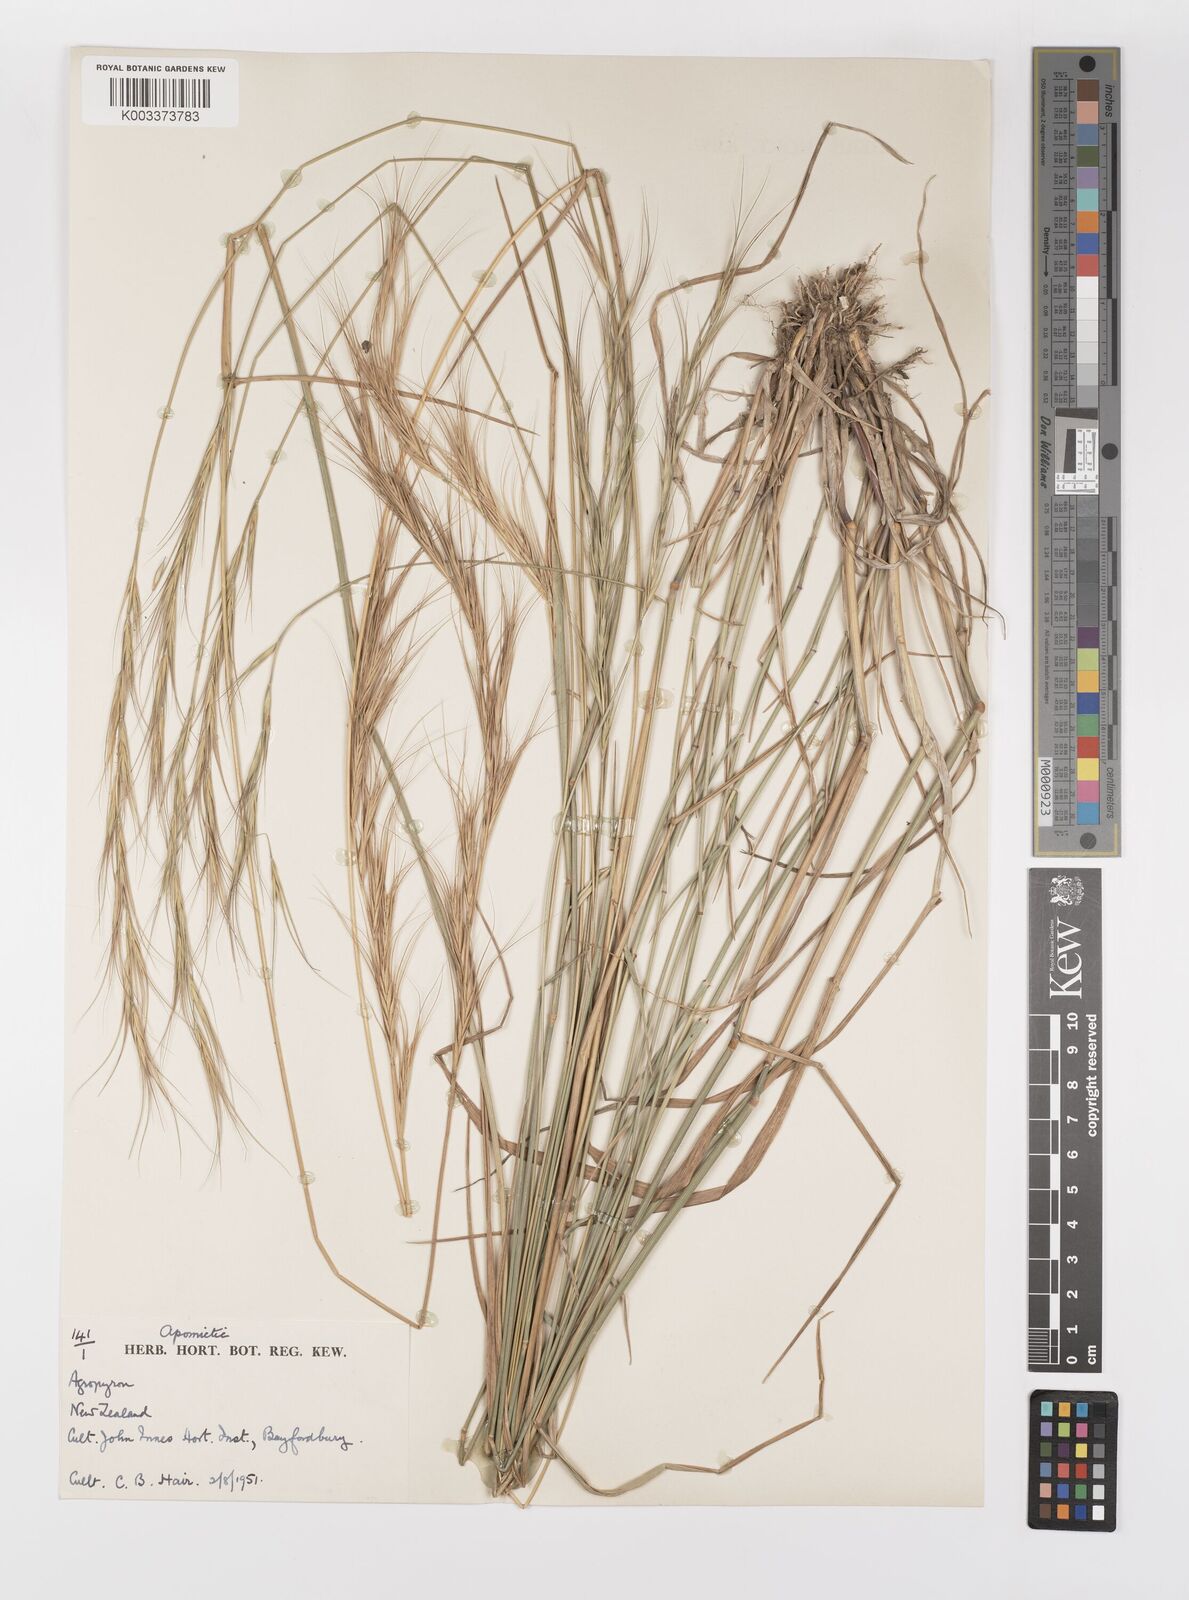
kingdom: Plantae
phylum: Tracheophyta
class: Liliopsida
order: Poales
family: Poaceae
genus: Elymus
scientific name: Elymus
